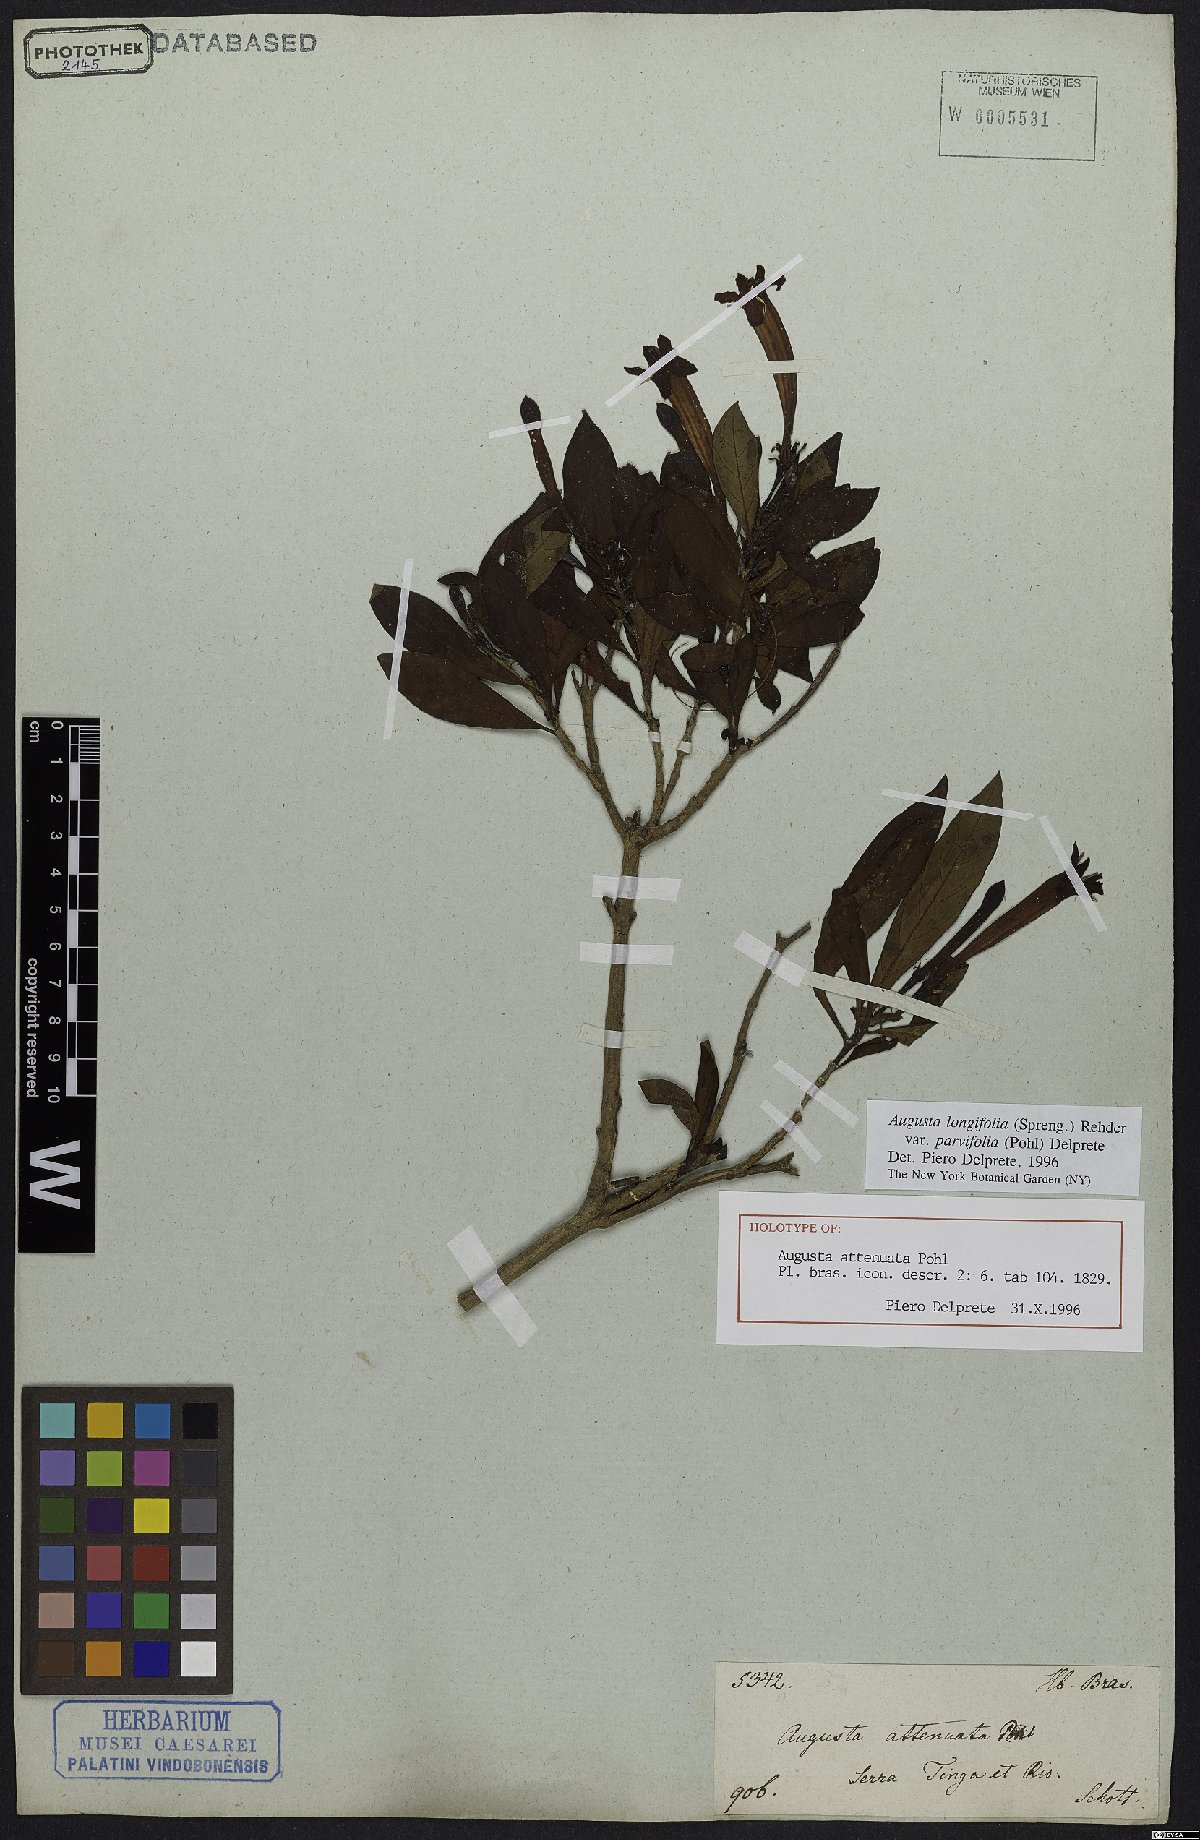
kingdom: Plantae
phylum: Tracheophyta
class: Magnoliopsida
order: Gentianales
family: Rubiaceae
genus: Augusta
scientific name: Augusta longifolia
